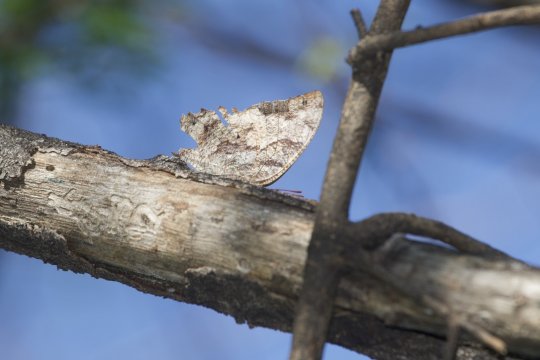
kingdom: Animalia
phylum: Arthropoda
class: Insecta
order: Lepidoptera
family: Nymphalidae
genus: Anaea
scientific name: Anaea pithyusa
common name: Pale-spotted Leafwing
